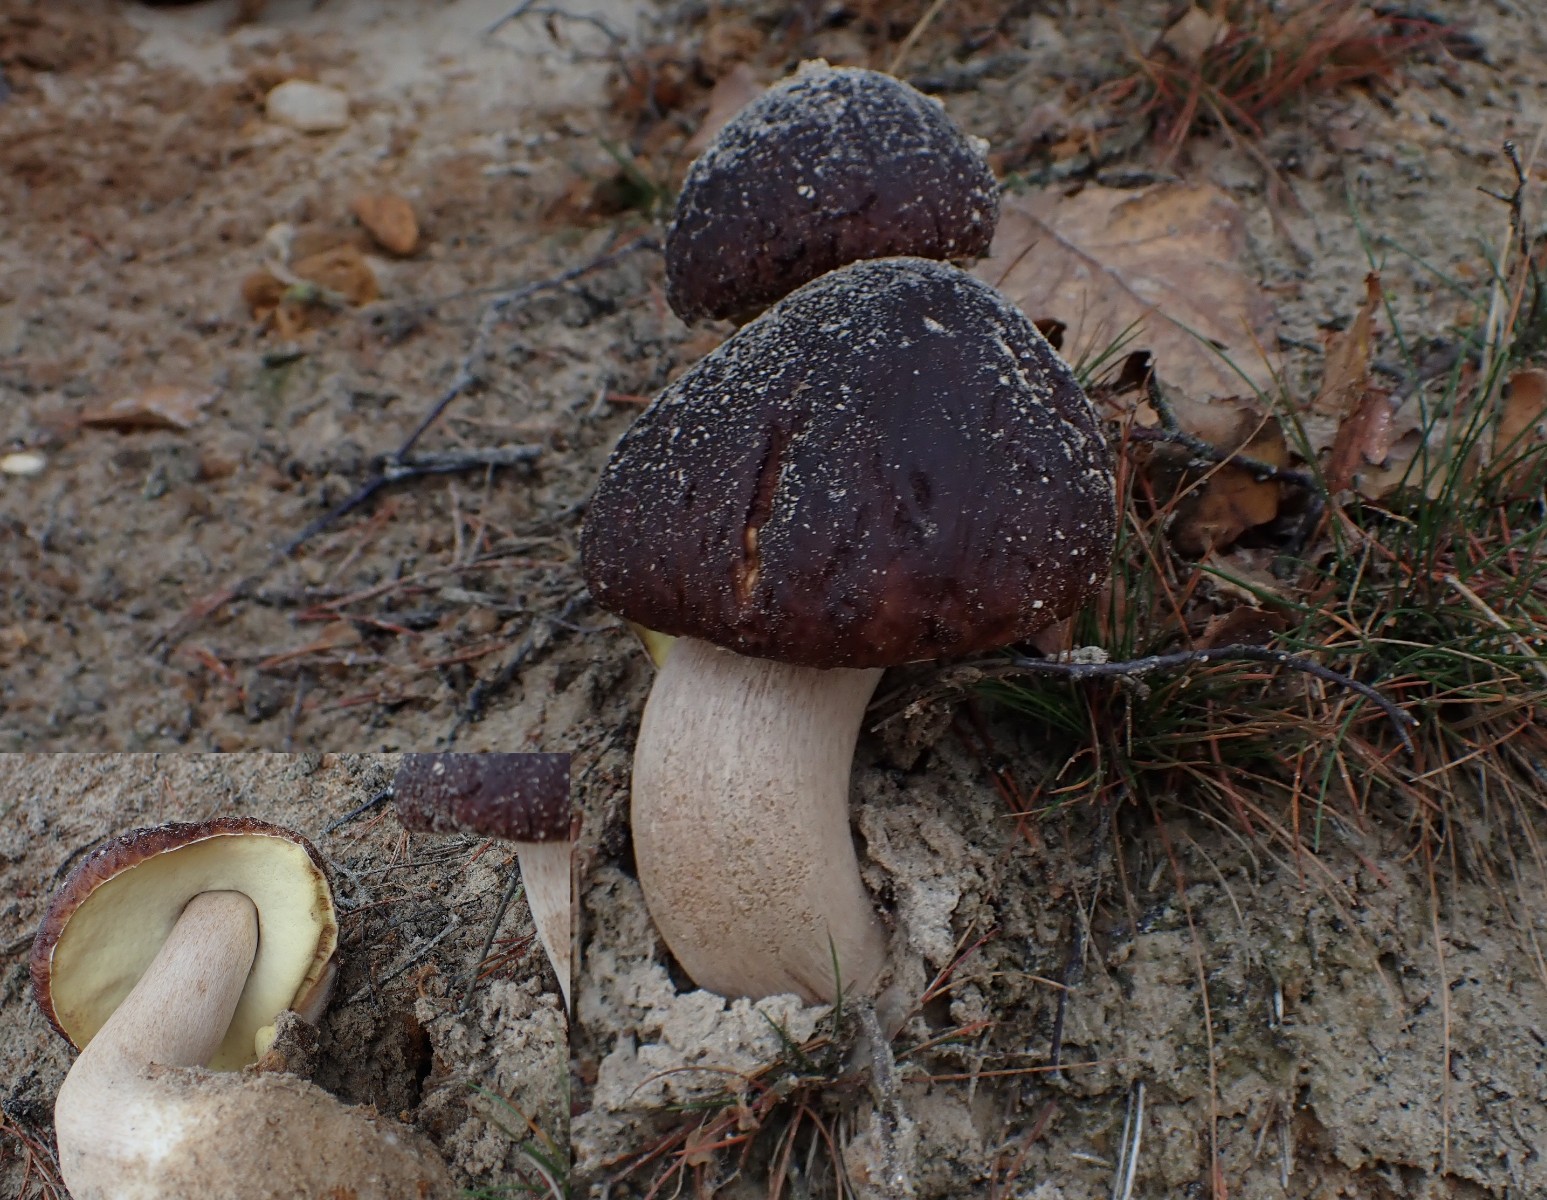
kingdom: Fungi
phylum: Basidiomycota
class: Agaricomycetes
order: Boletales
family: Boletaceae
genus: Boletus
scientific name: Boletus pinophilus
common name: rødbrun rørhat
